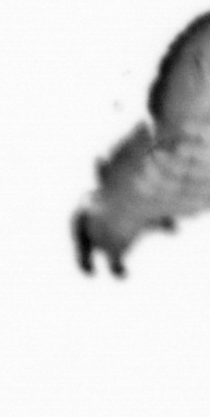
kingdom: Animalia
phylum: Annelida
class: Polychaeta
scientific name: Polychaeta
